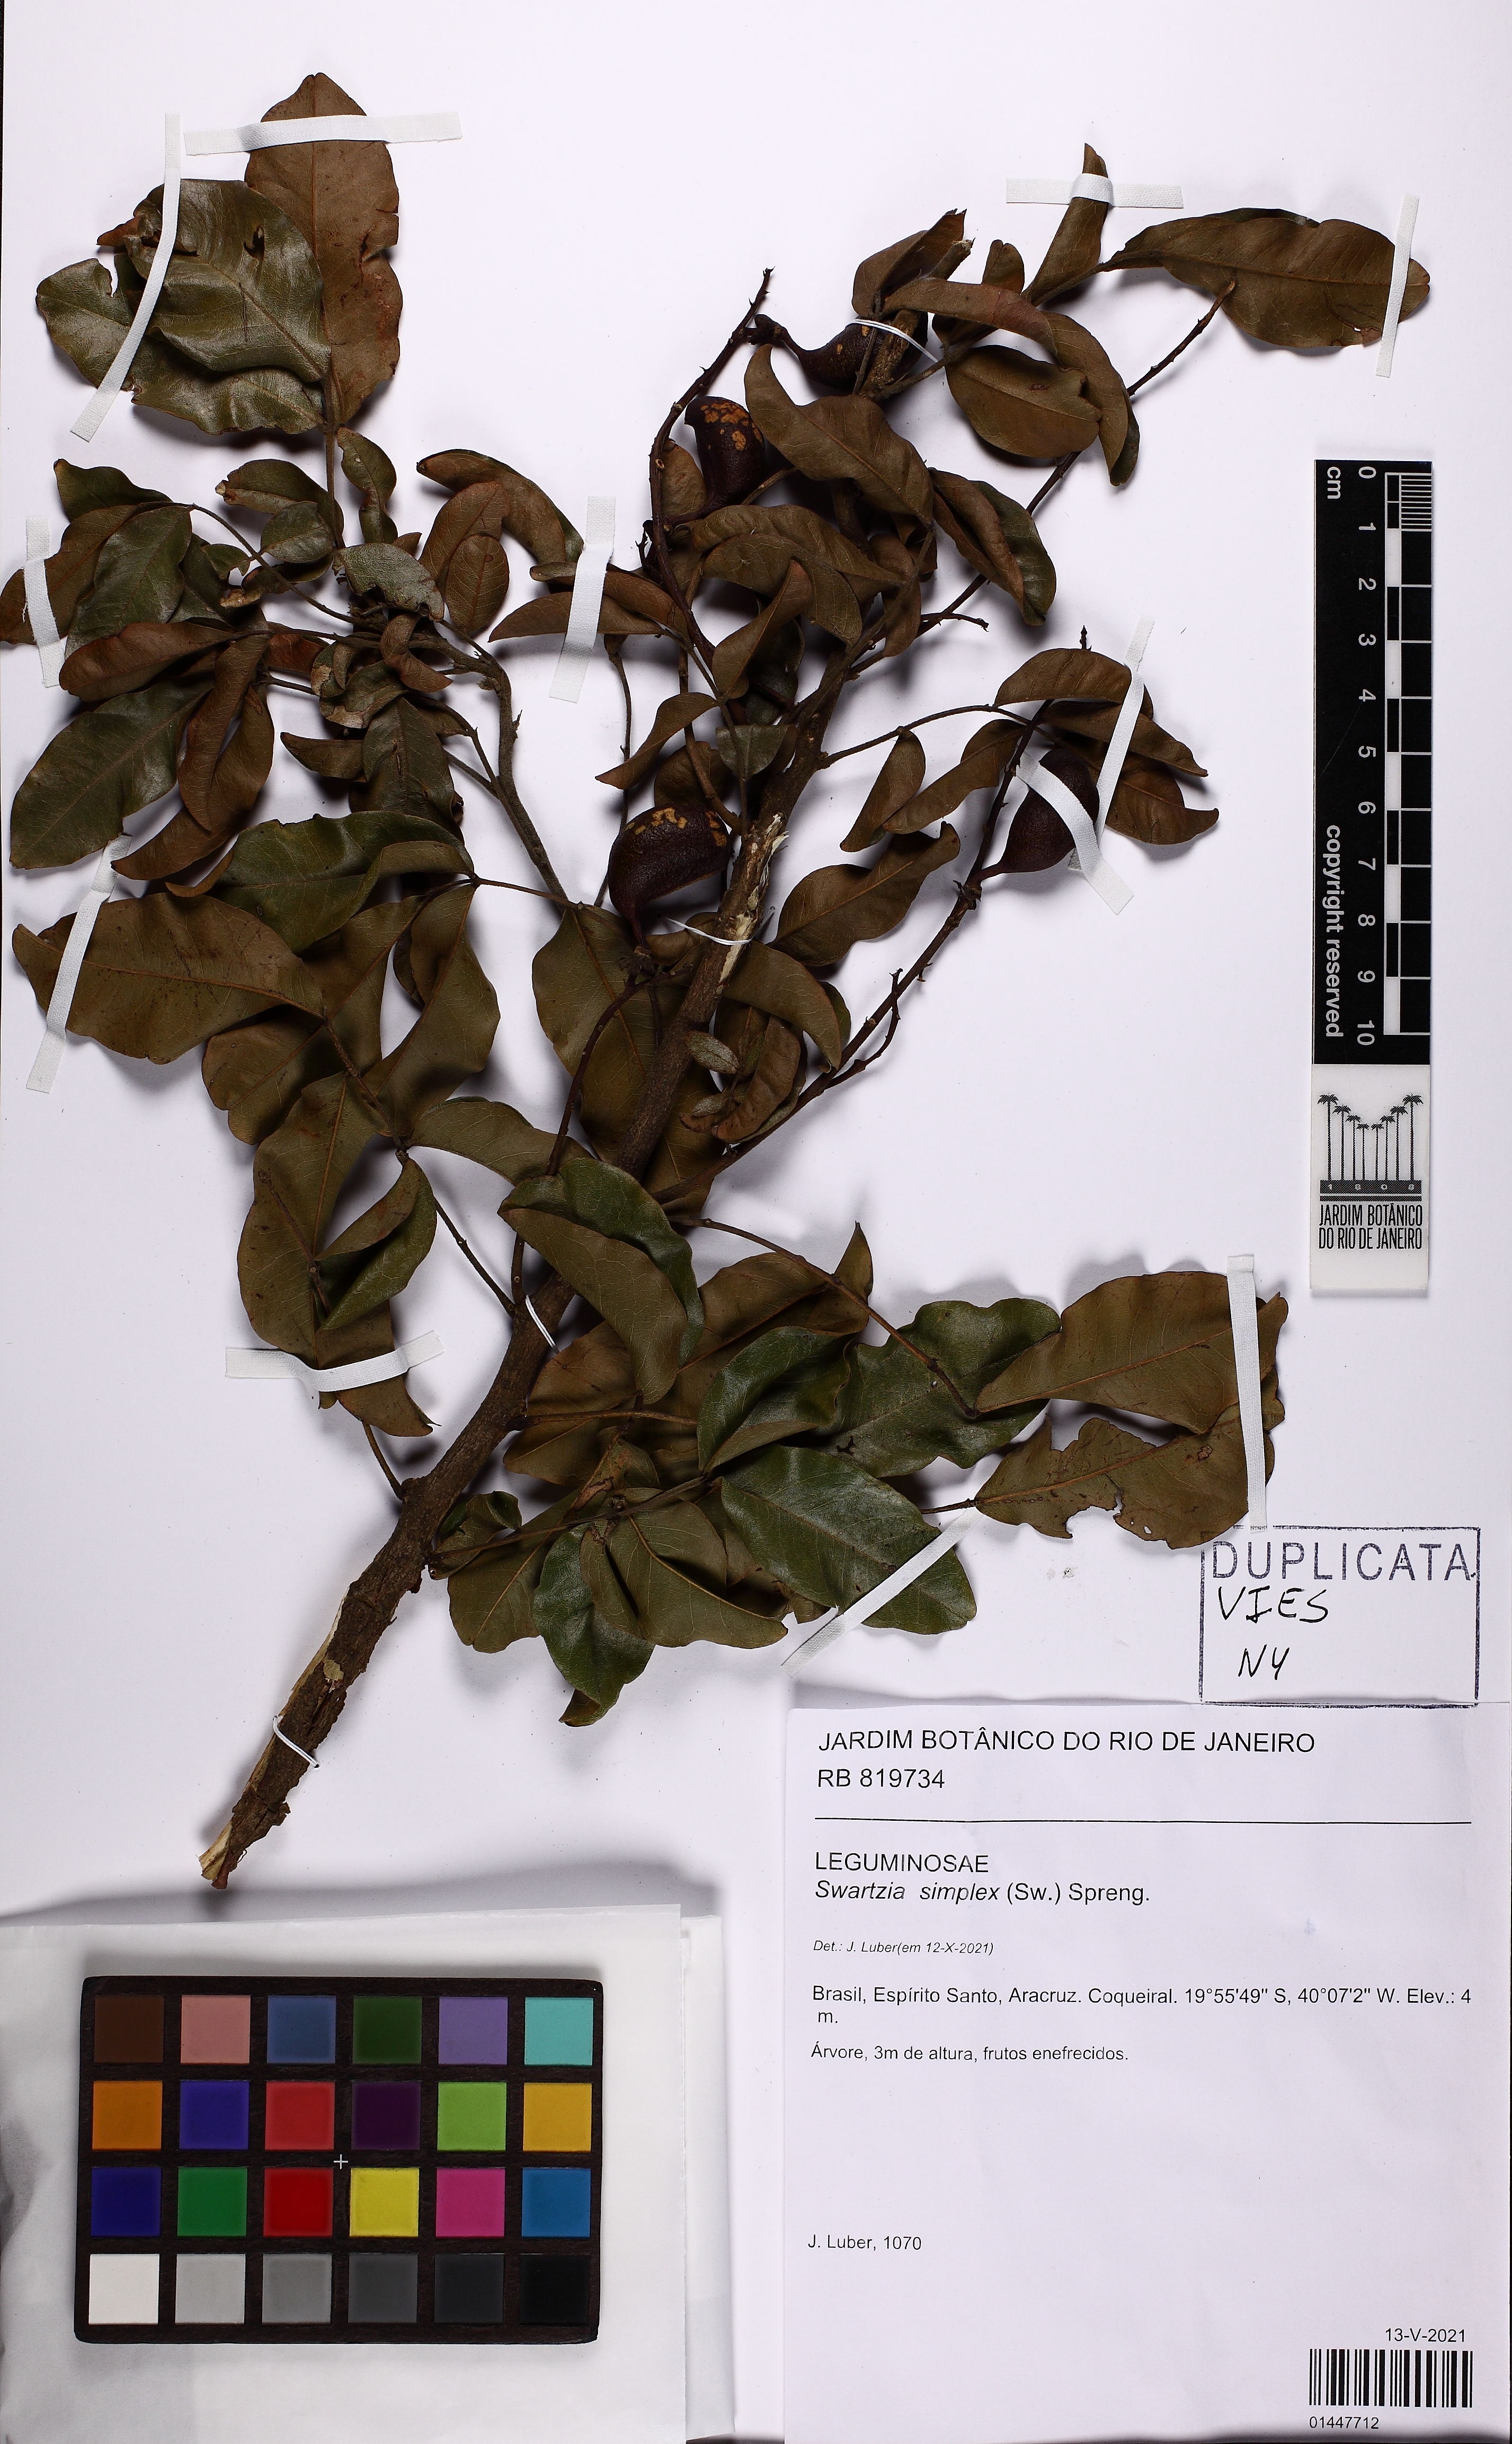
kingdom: Plantae
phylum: Tracheophyta
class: Magnoliopsida
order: Fabales
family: Fabaceae
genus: Swartzia
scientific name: Swartzia simplex
